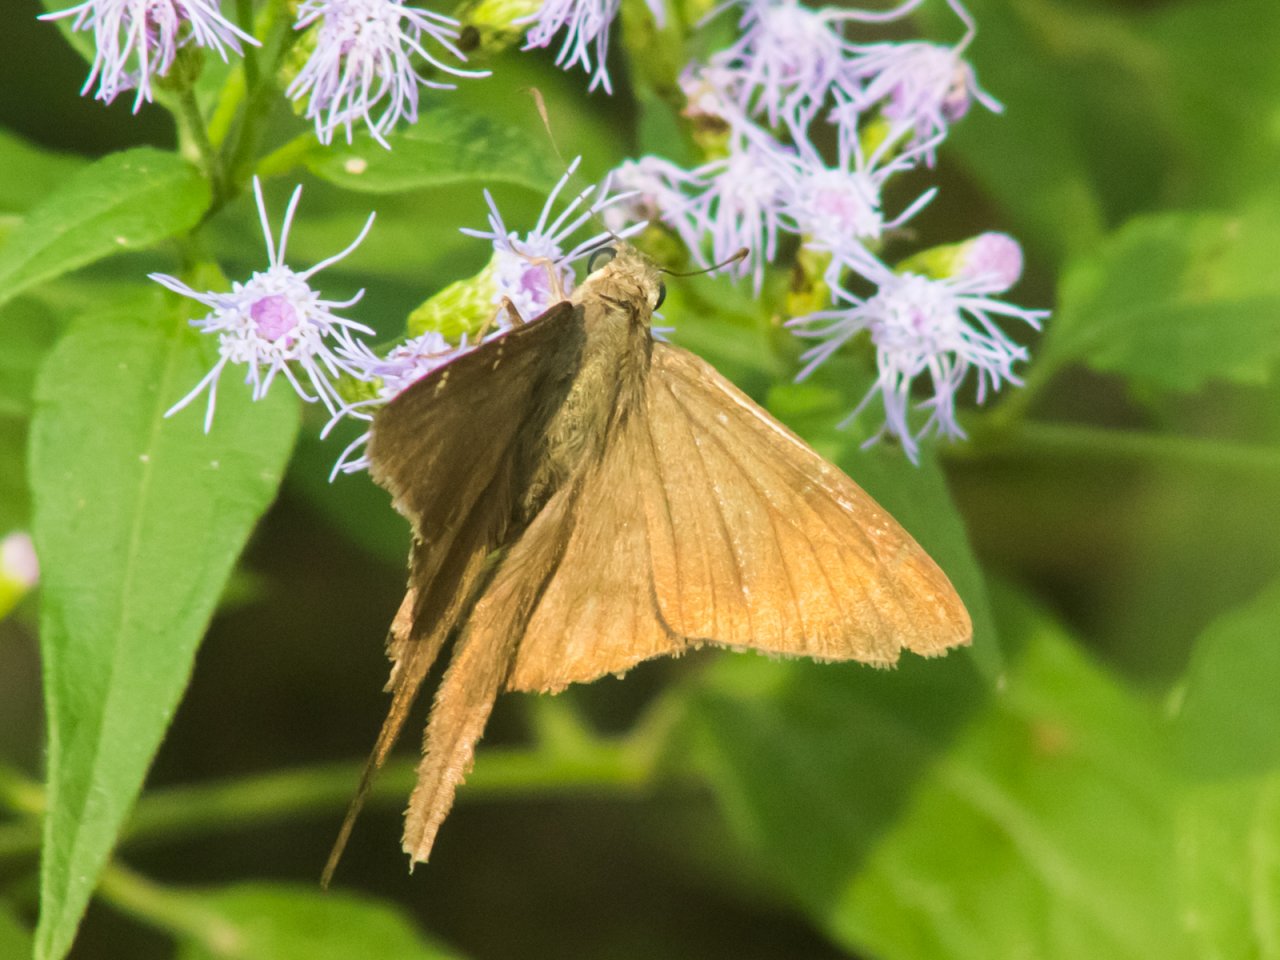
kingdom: Animalia
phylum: Arthropoda
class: Insecta
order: Lepidoptera
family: Hesperiidae
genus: Urbanus
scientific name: Urbanus procne
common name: Brown Longtail
